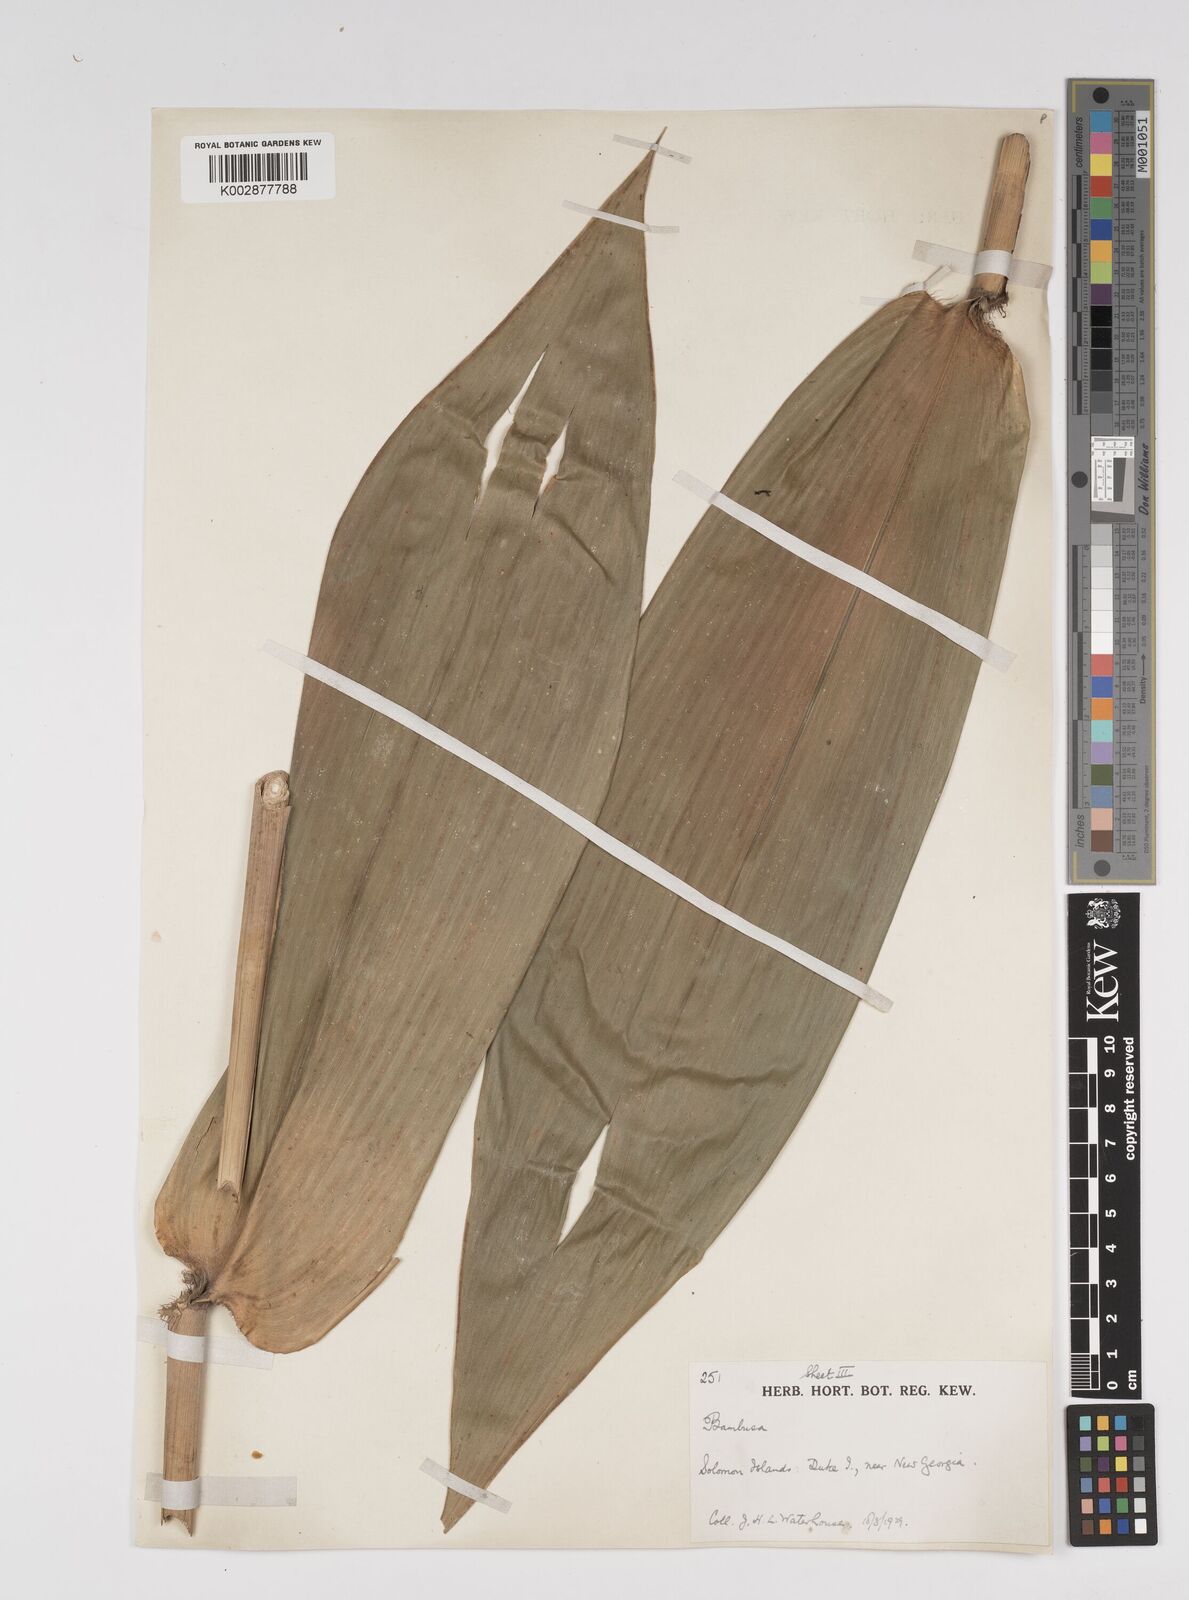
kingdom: Plantae
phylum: Tracheophyta
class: Liliopsida
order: Poales
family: Poaceae
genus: Bambusa
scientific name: Bambusa
